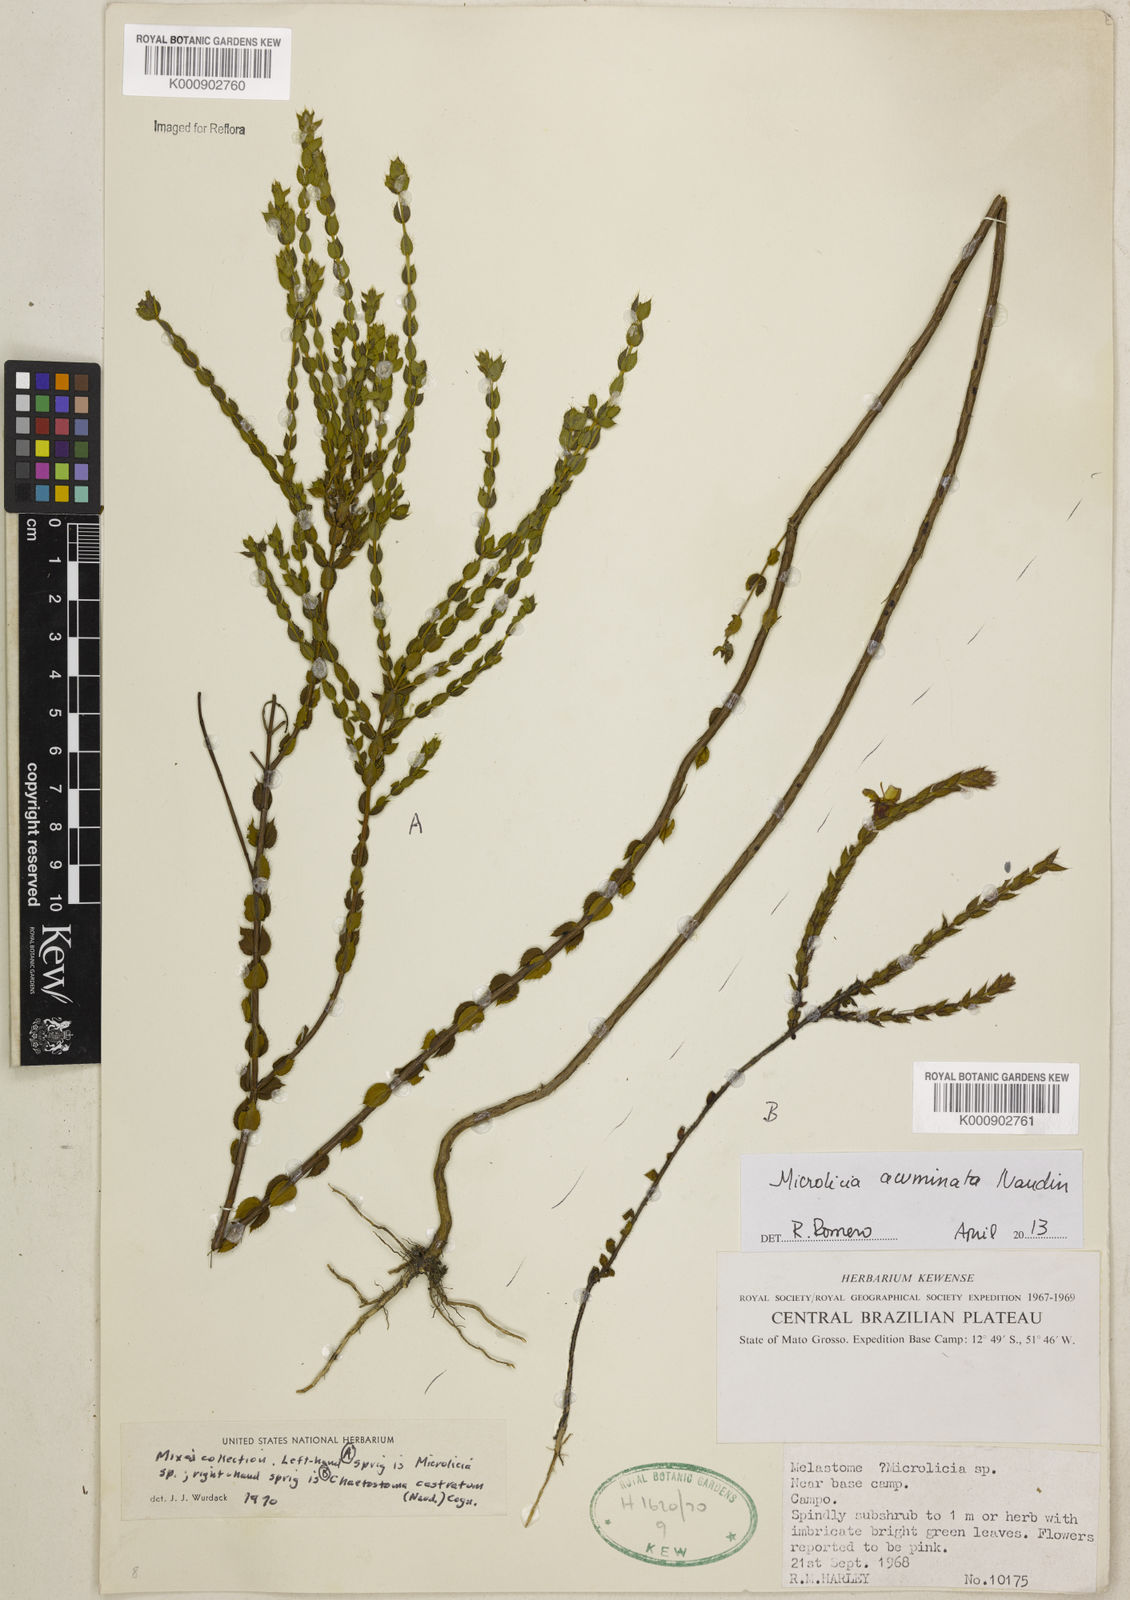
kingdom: Plantae
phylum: Tracheophyta
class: Magnoliopsida
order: Myrtales
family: Melastomataceae
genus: Microlicia
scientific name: Microlicia
